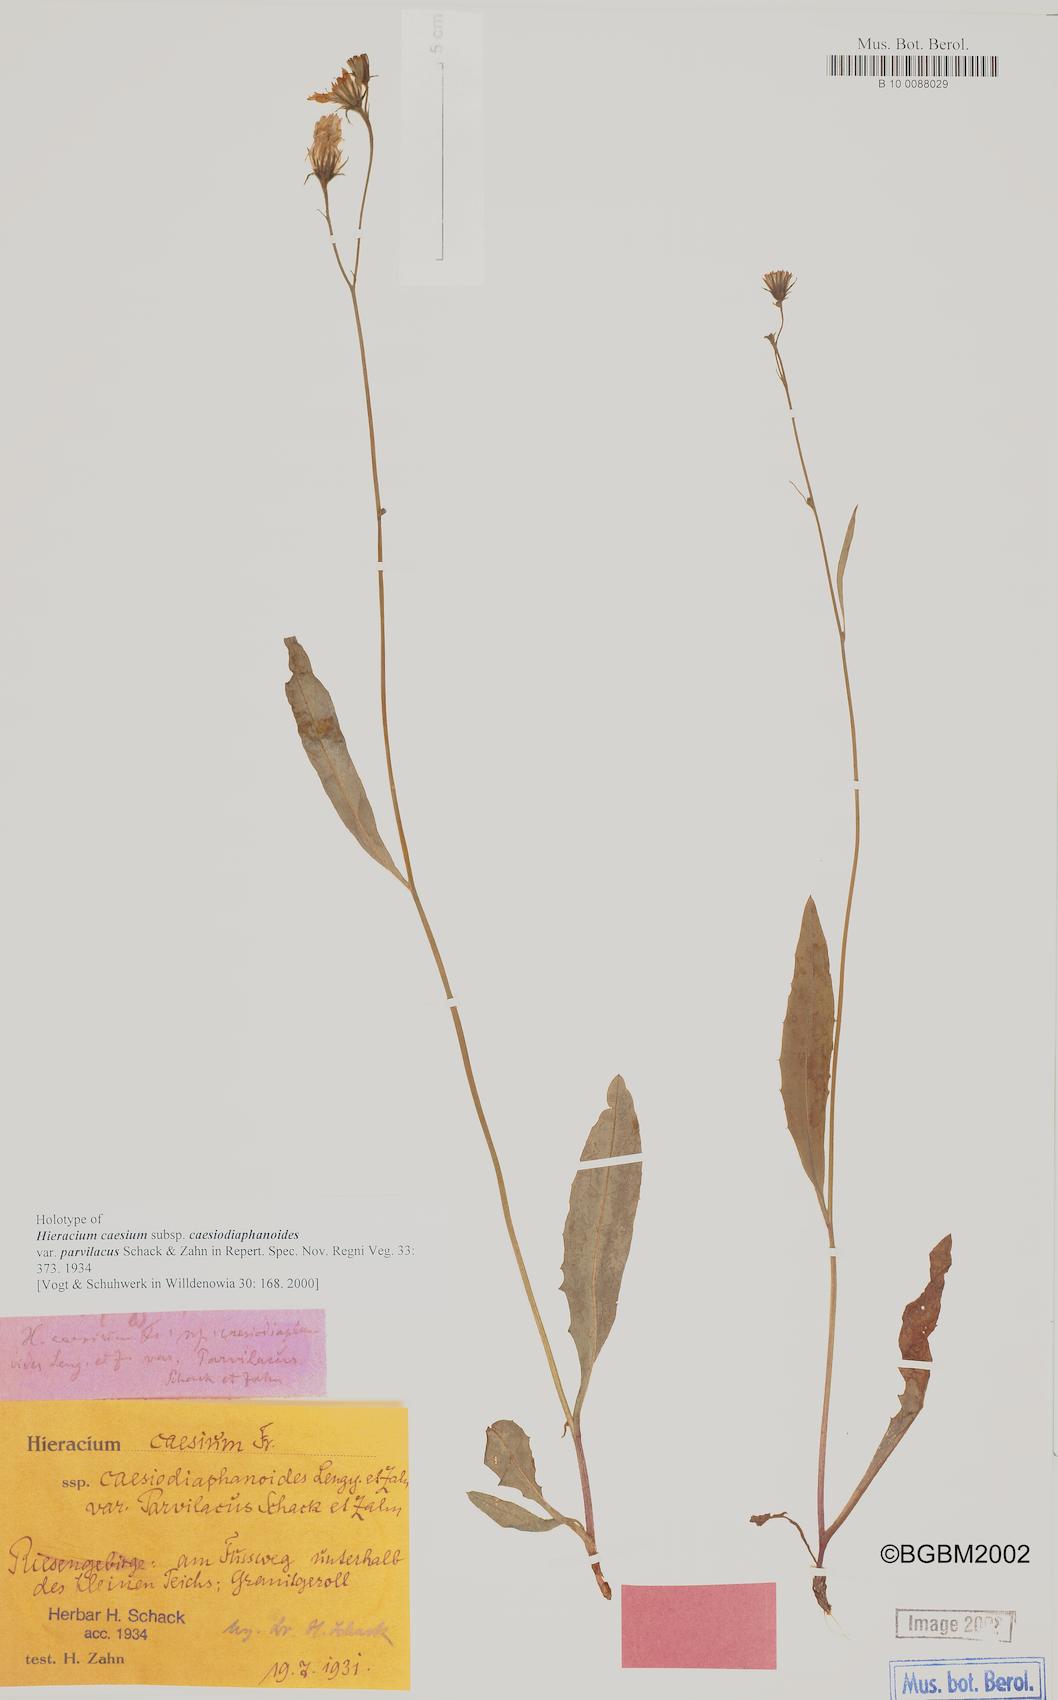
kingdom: Plantae
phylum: Tracheophyta
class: Magnoliopsida
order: Asterales
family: Asteraceae
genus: Hieracium
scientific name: Hieracium caesium
